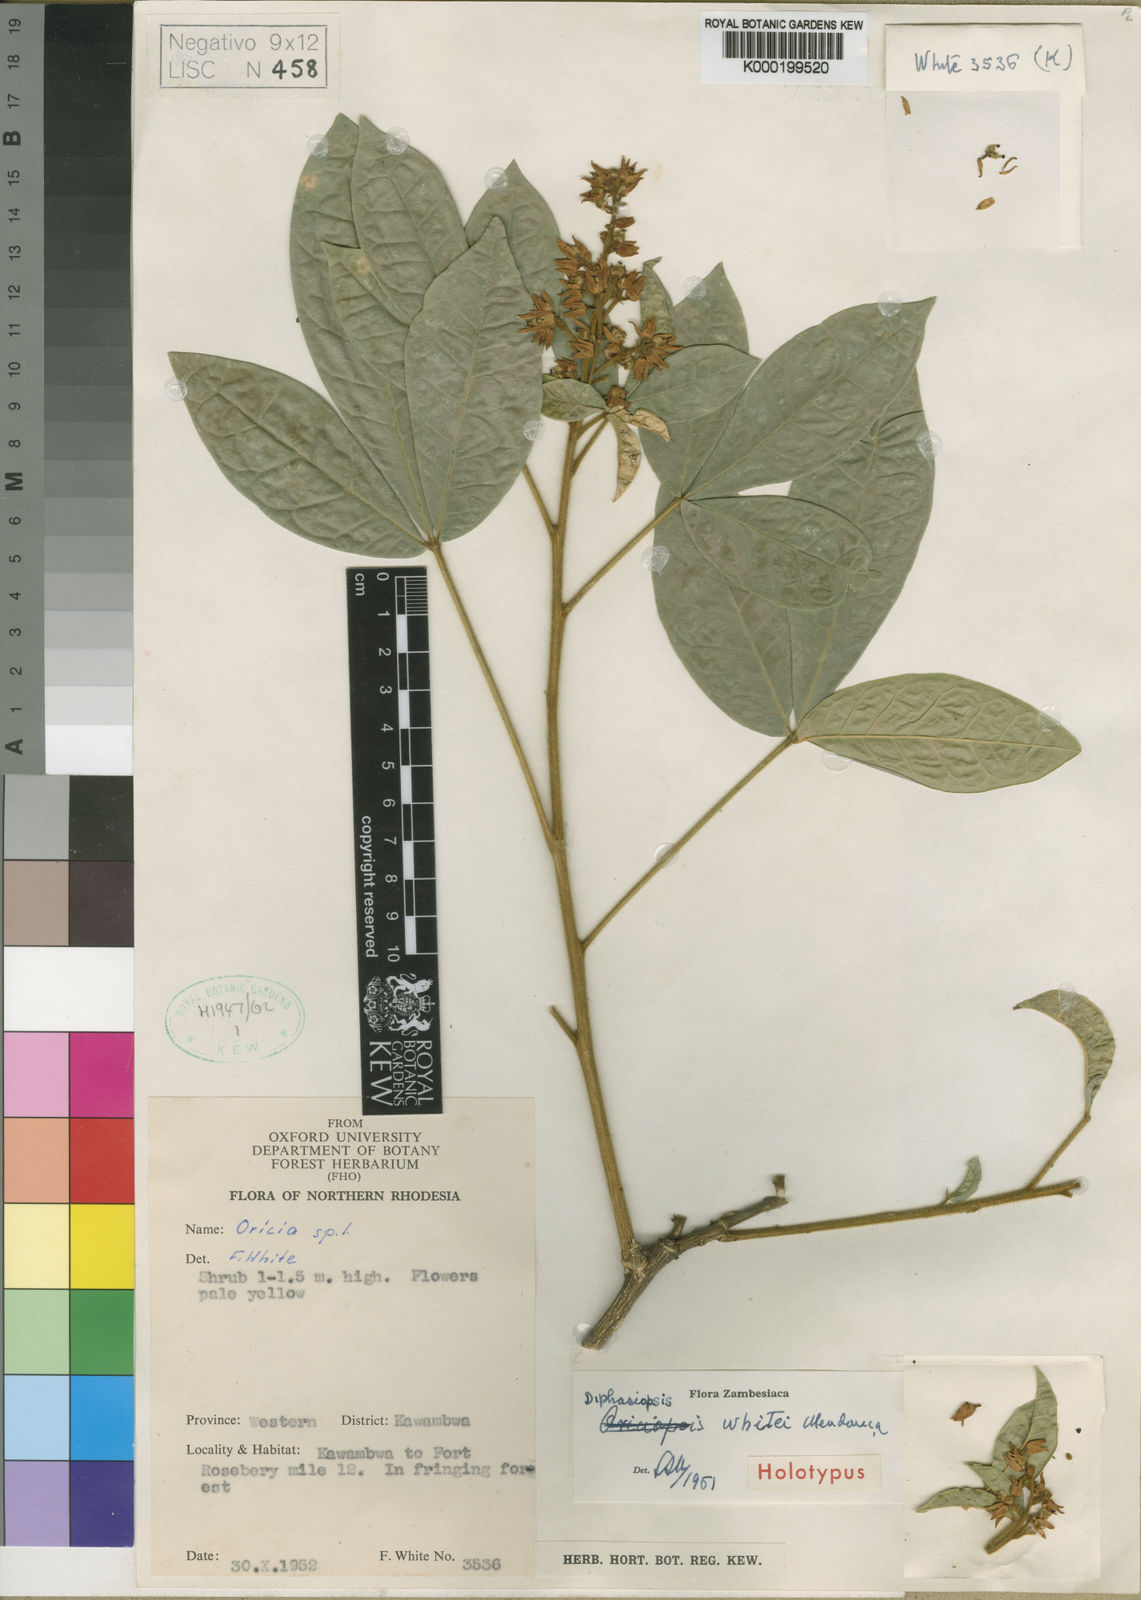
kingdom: Plantae
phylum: Tracheophyta
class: Magnoliopsida
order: Sapindales
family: Rutaceae
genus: Vepris
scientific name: Vepris
